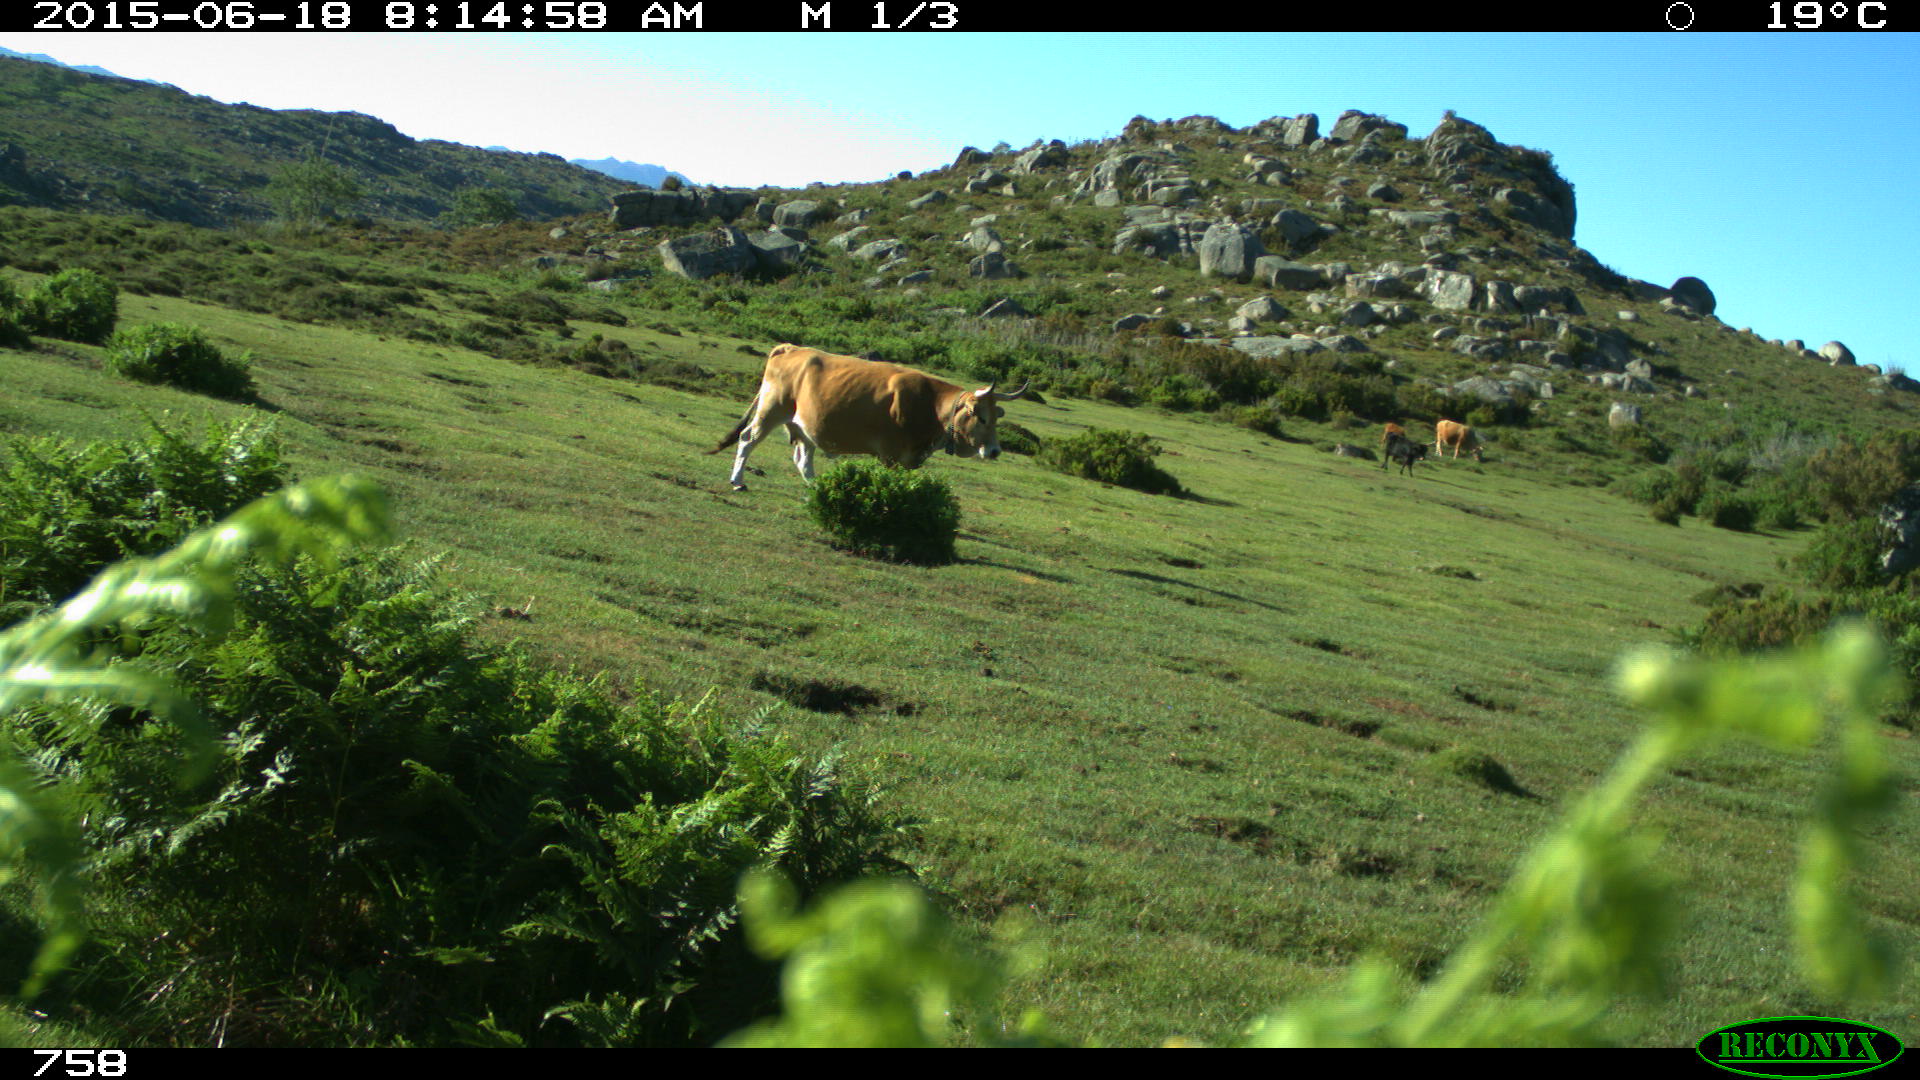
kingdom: Animalia
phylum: Chordata
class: Mammalia
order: Artiodactyla
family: Bovidae
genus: Bos
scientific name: Bos taurus
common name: Domesticated cattle
